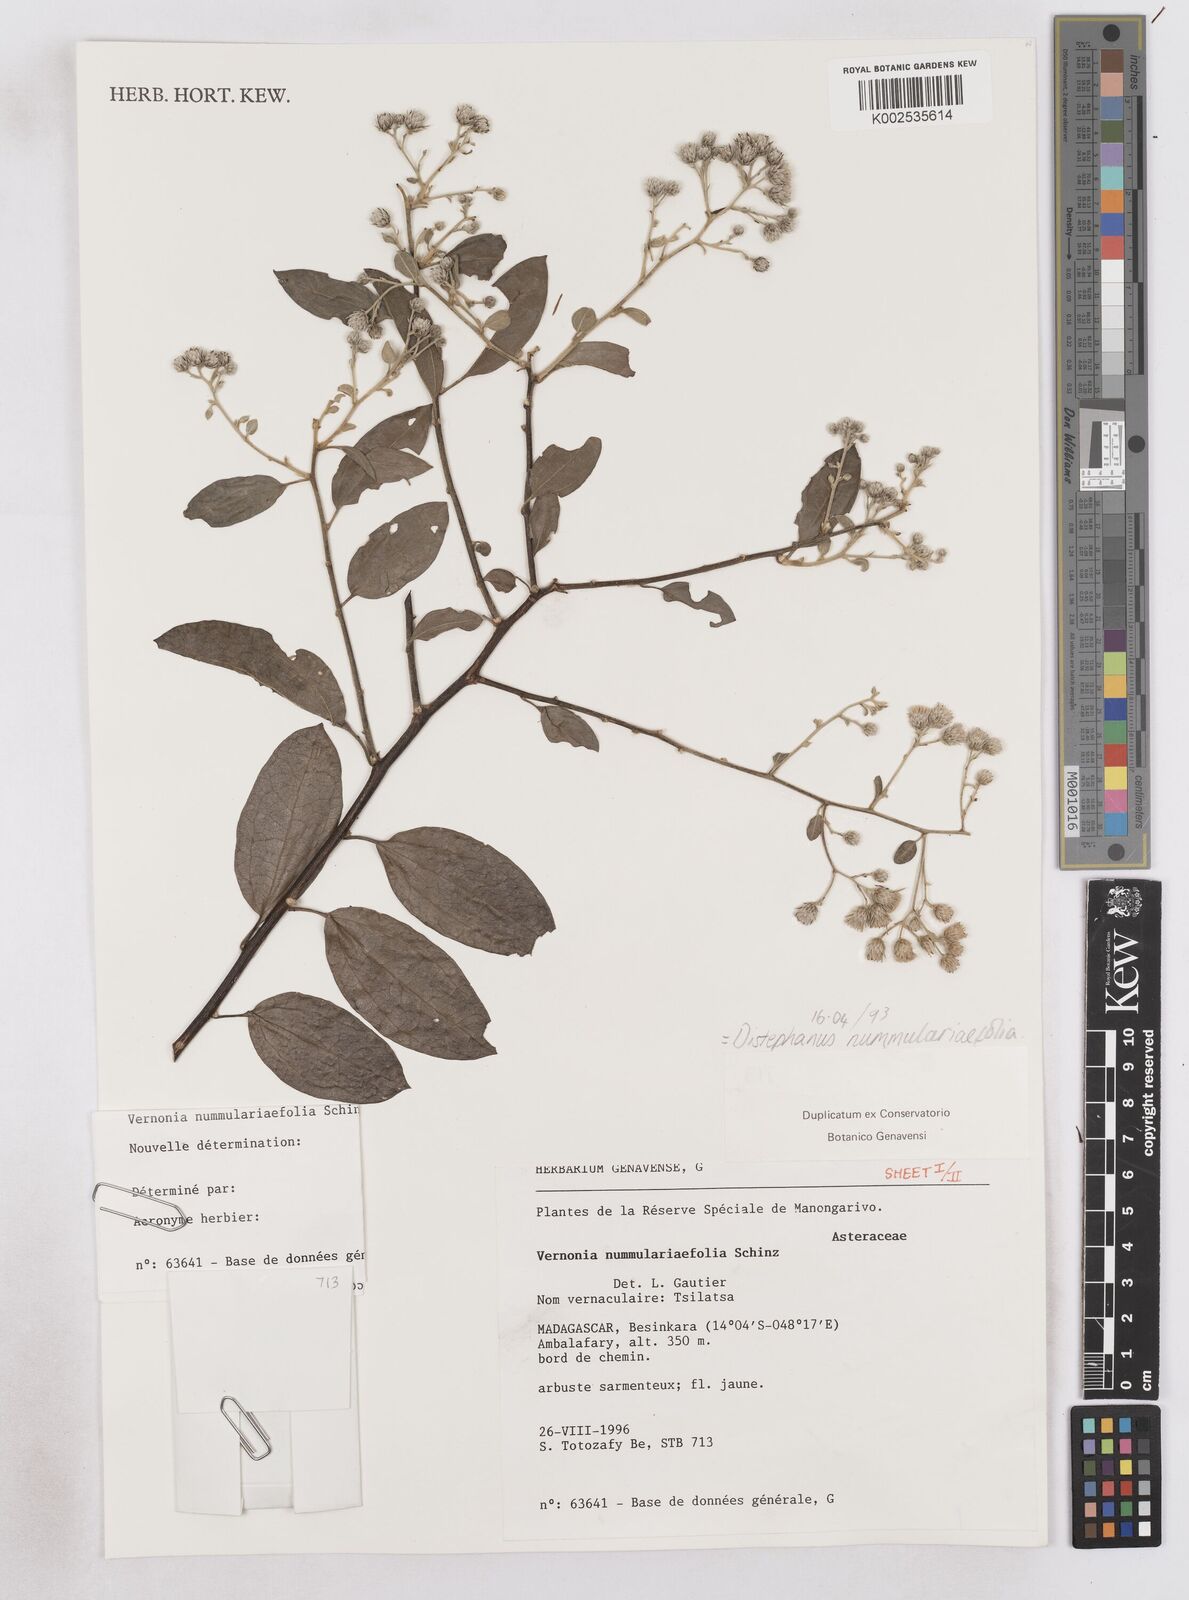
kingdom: Plantae
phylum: Tracheophyta
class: Magnoliopsida
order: Asterales
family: Asteraceae
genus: Distephanus
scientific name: Distephanus nummulariifolius
